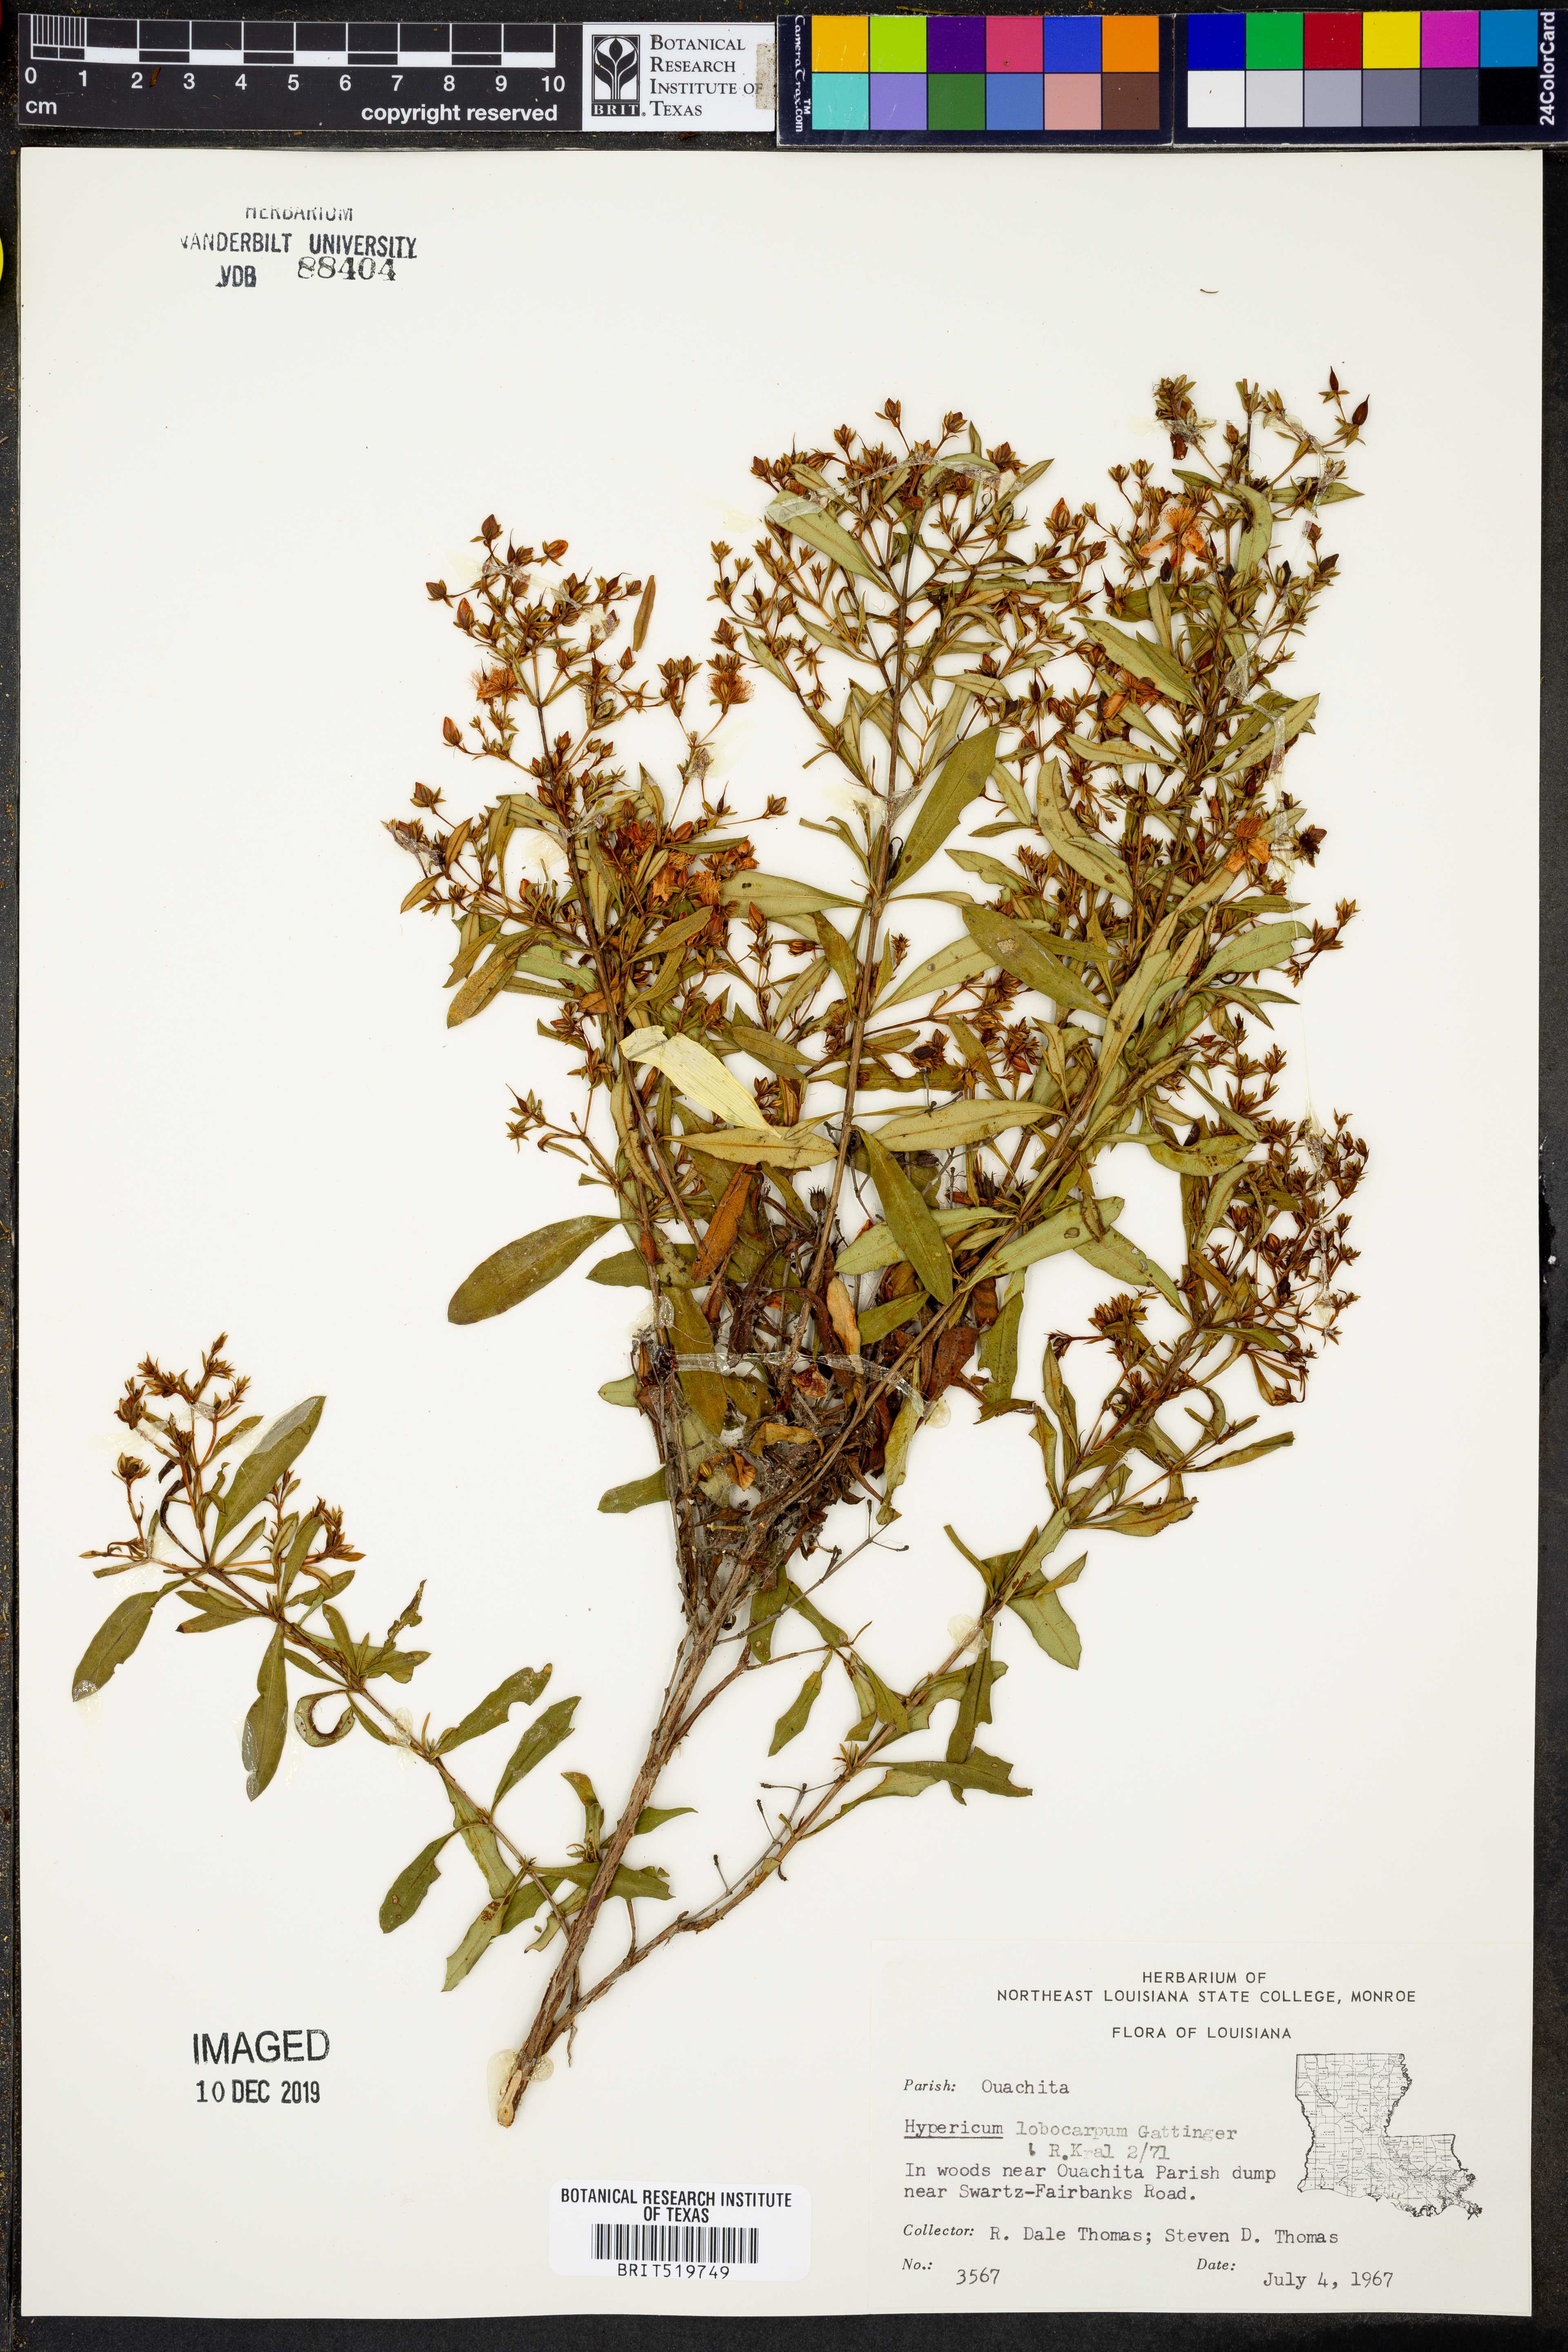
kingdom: Plantae
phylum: Tracheophyta
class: Magnoliopsida
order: Malpighiales
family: Hypericaceae
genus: Hypericum
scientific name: Hypericum lobocarpum
